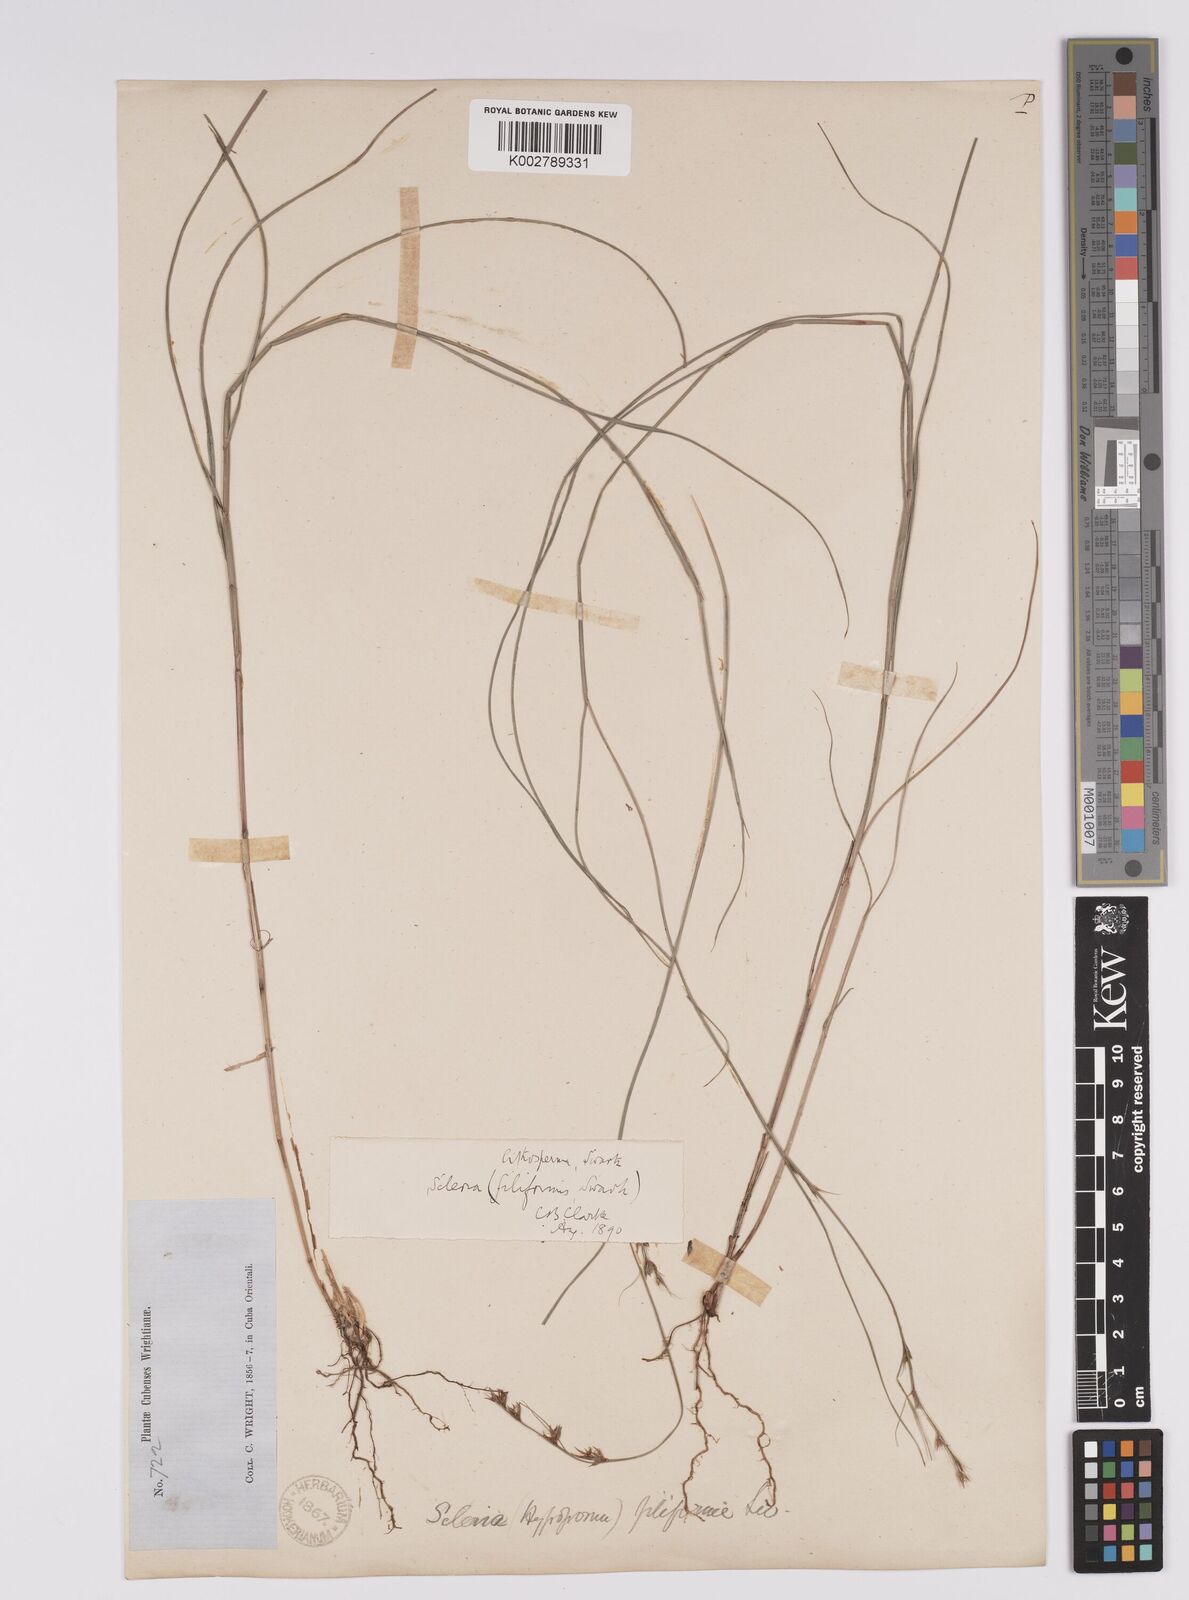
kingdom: Plantae
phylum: Tracheophyta
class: Liliopsida
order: Poales
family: Cyperaceae
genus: Scleria
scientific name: Scleria lithosperma
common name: Florida keys nut-rush
